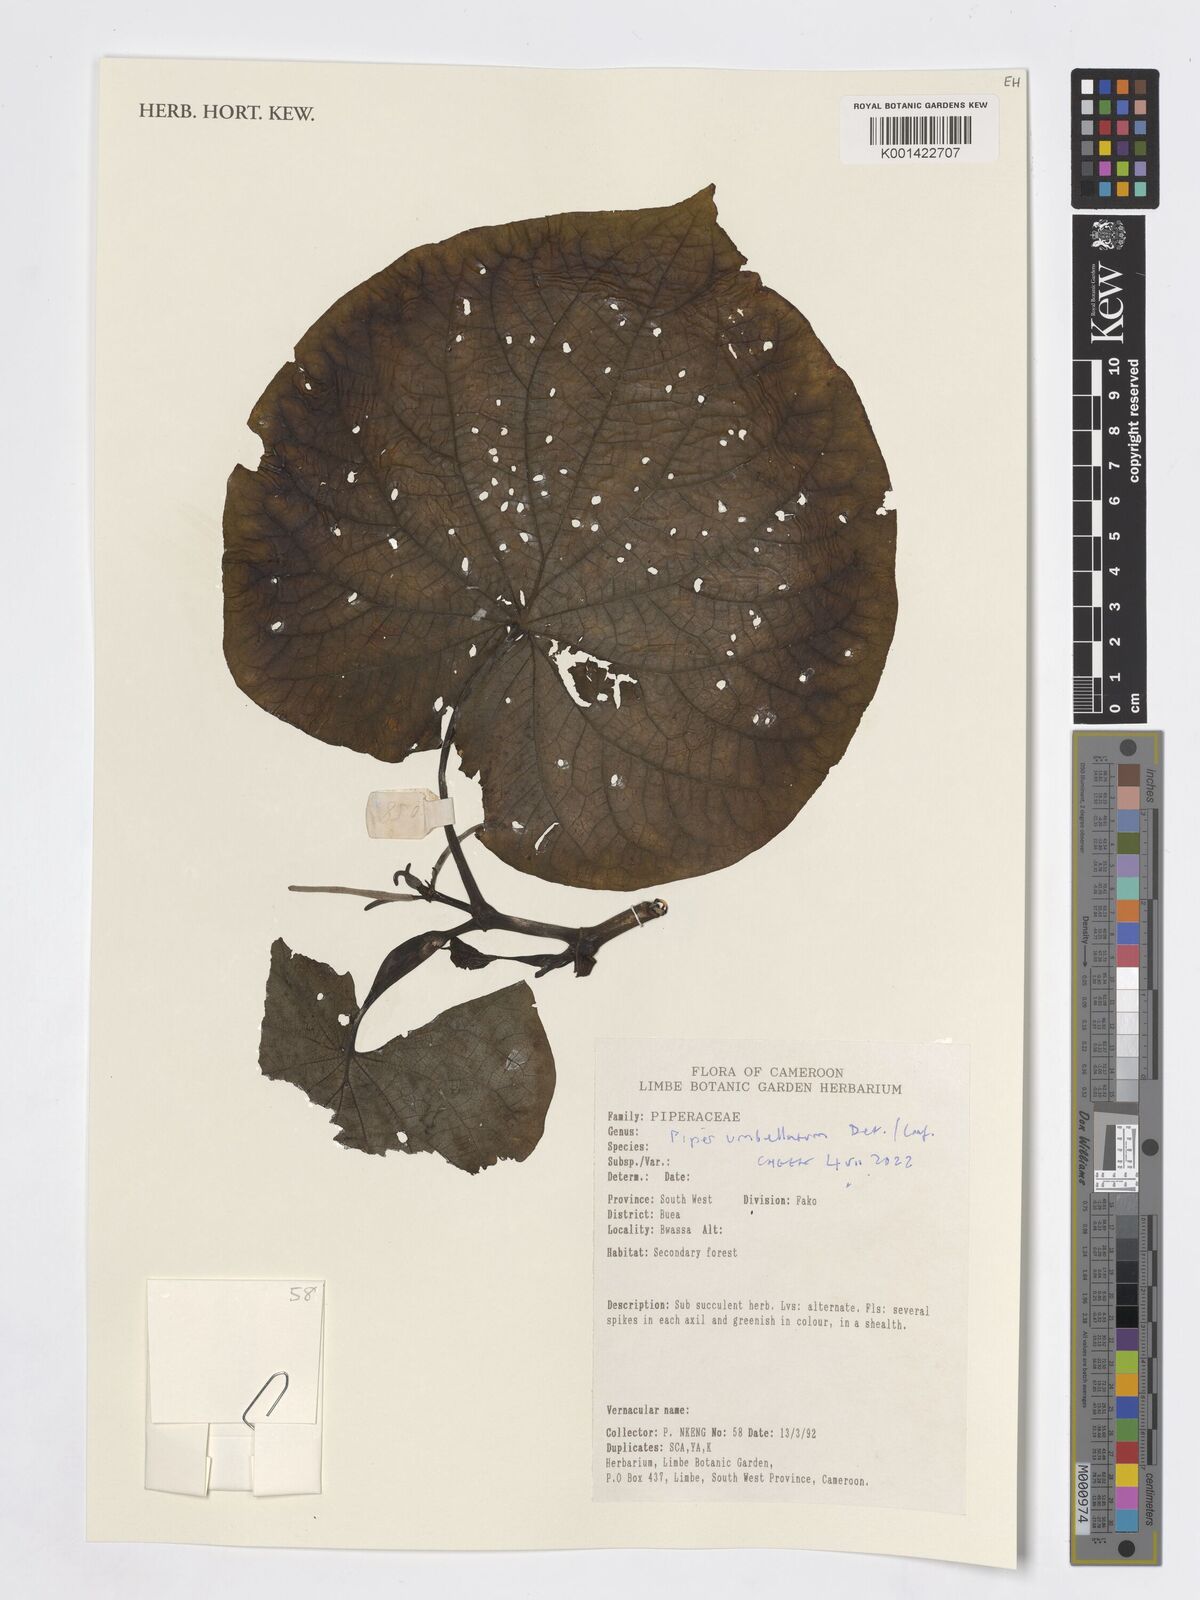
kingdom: Plantae
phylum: Tracheophyta
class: Magnoliopsida
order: Piperales
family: Piperaceae
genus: Piper
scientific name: Piper umbellatum
